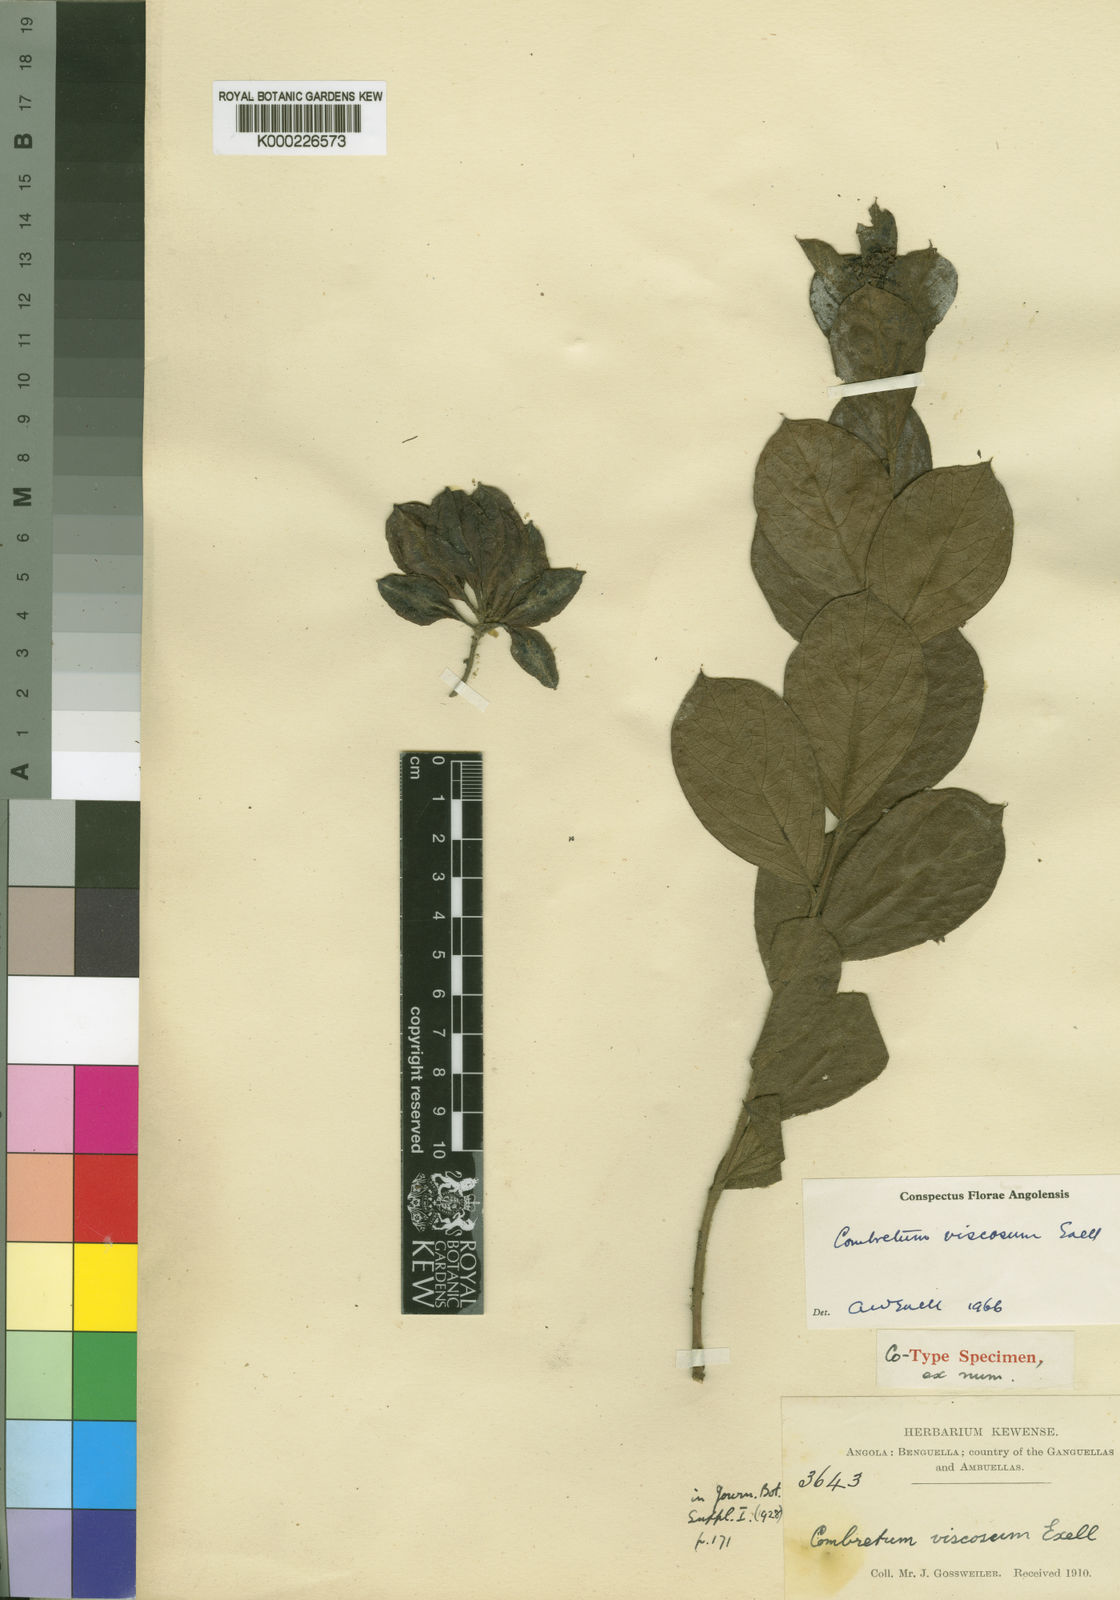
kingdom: Plantae
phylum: Tracheophyta
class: Magnoliopsida
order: Myrtales
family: Combretaceae
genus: Combretum
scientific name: Combretum viscosum
